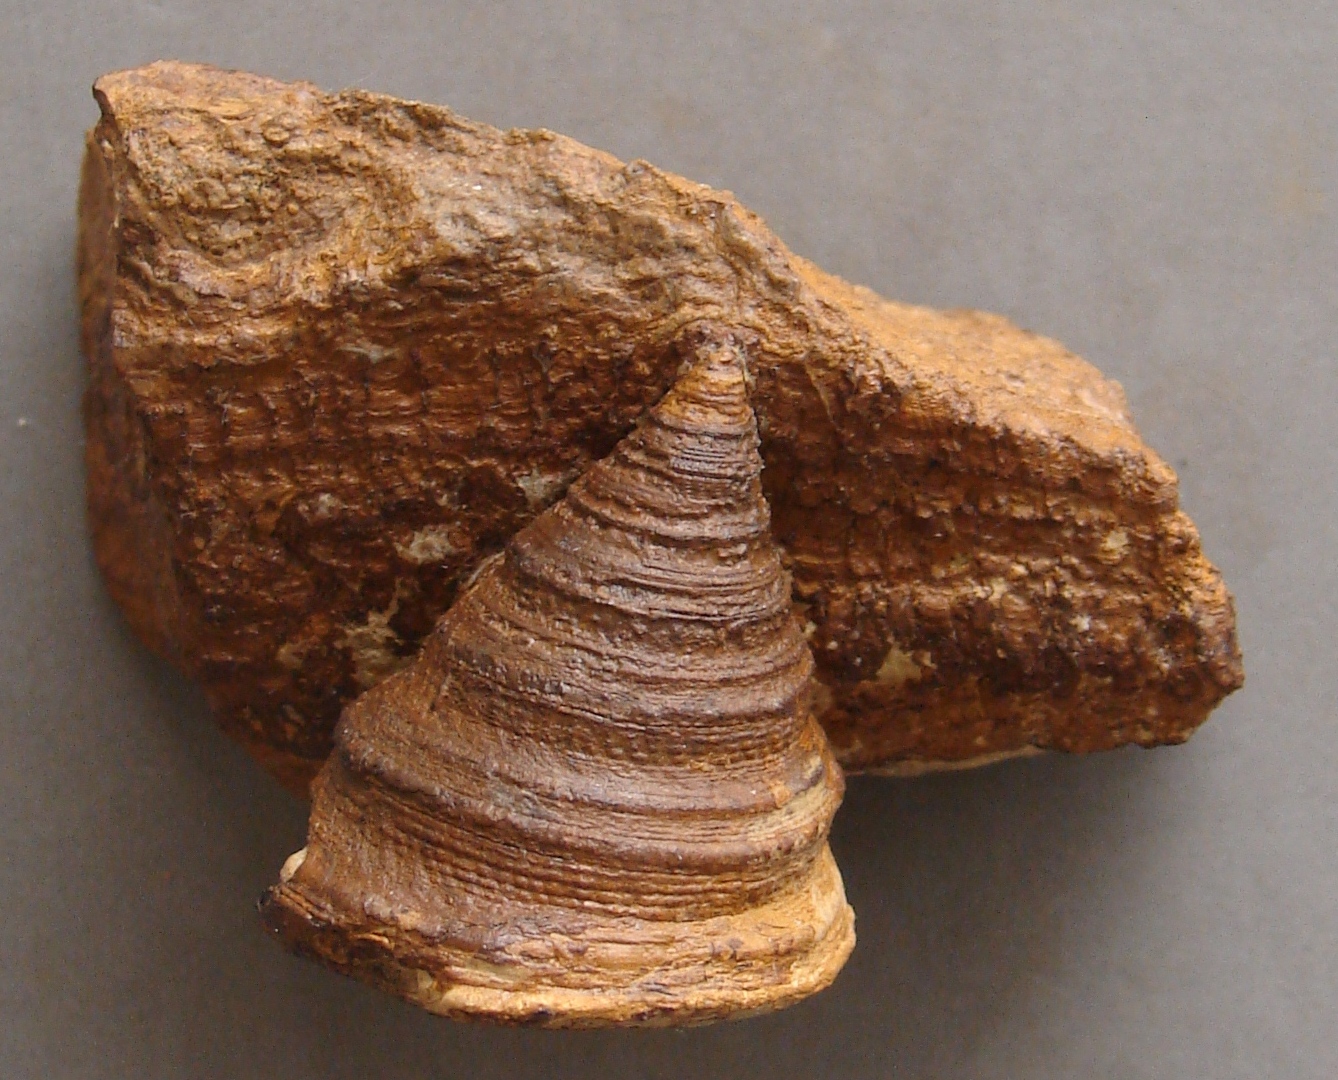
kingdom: Animalia
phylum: Mollusca
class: Gastropoda
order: Pleurotomariida
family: Pleurotomariidae
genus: Pyrgotrochus
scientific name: Pyrgotrochus elongatus
